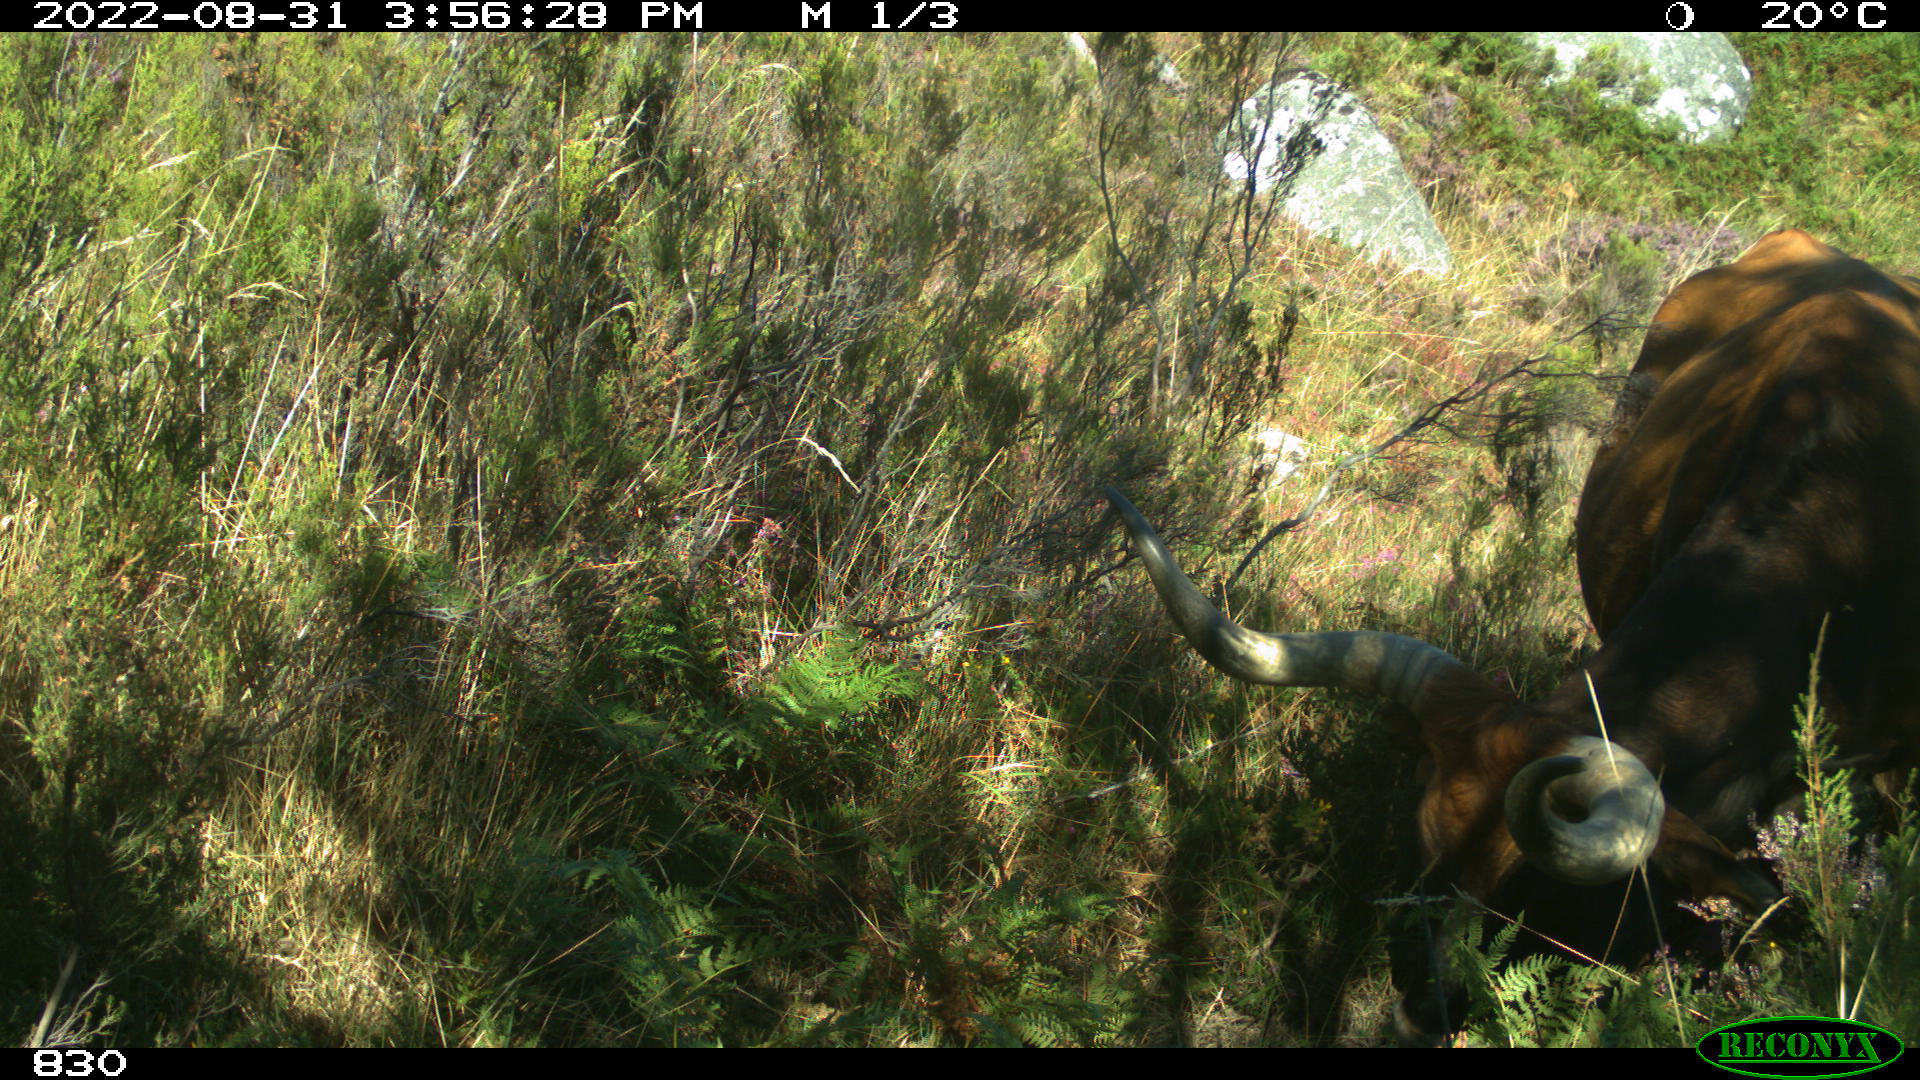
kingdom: Animalia
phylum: Chordata
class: Mammalia
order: Artiodactyla
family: Bovidae
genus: Bos
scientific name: Bos taurus
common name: Domesticated cattle
